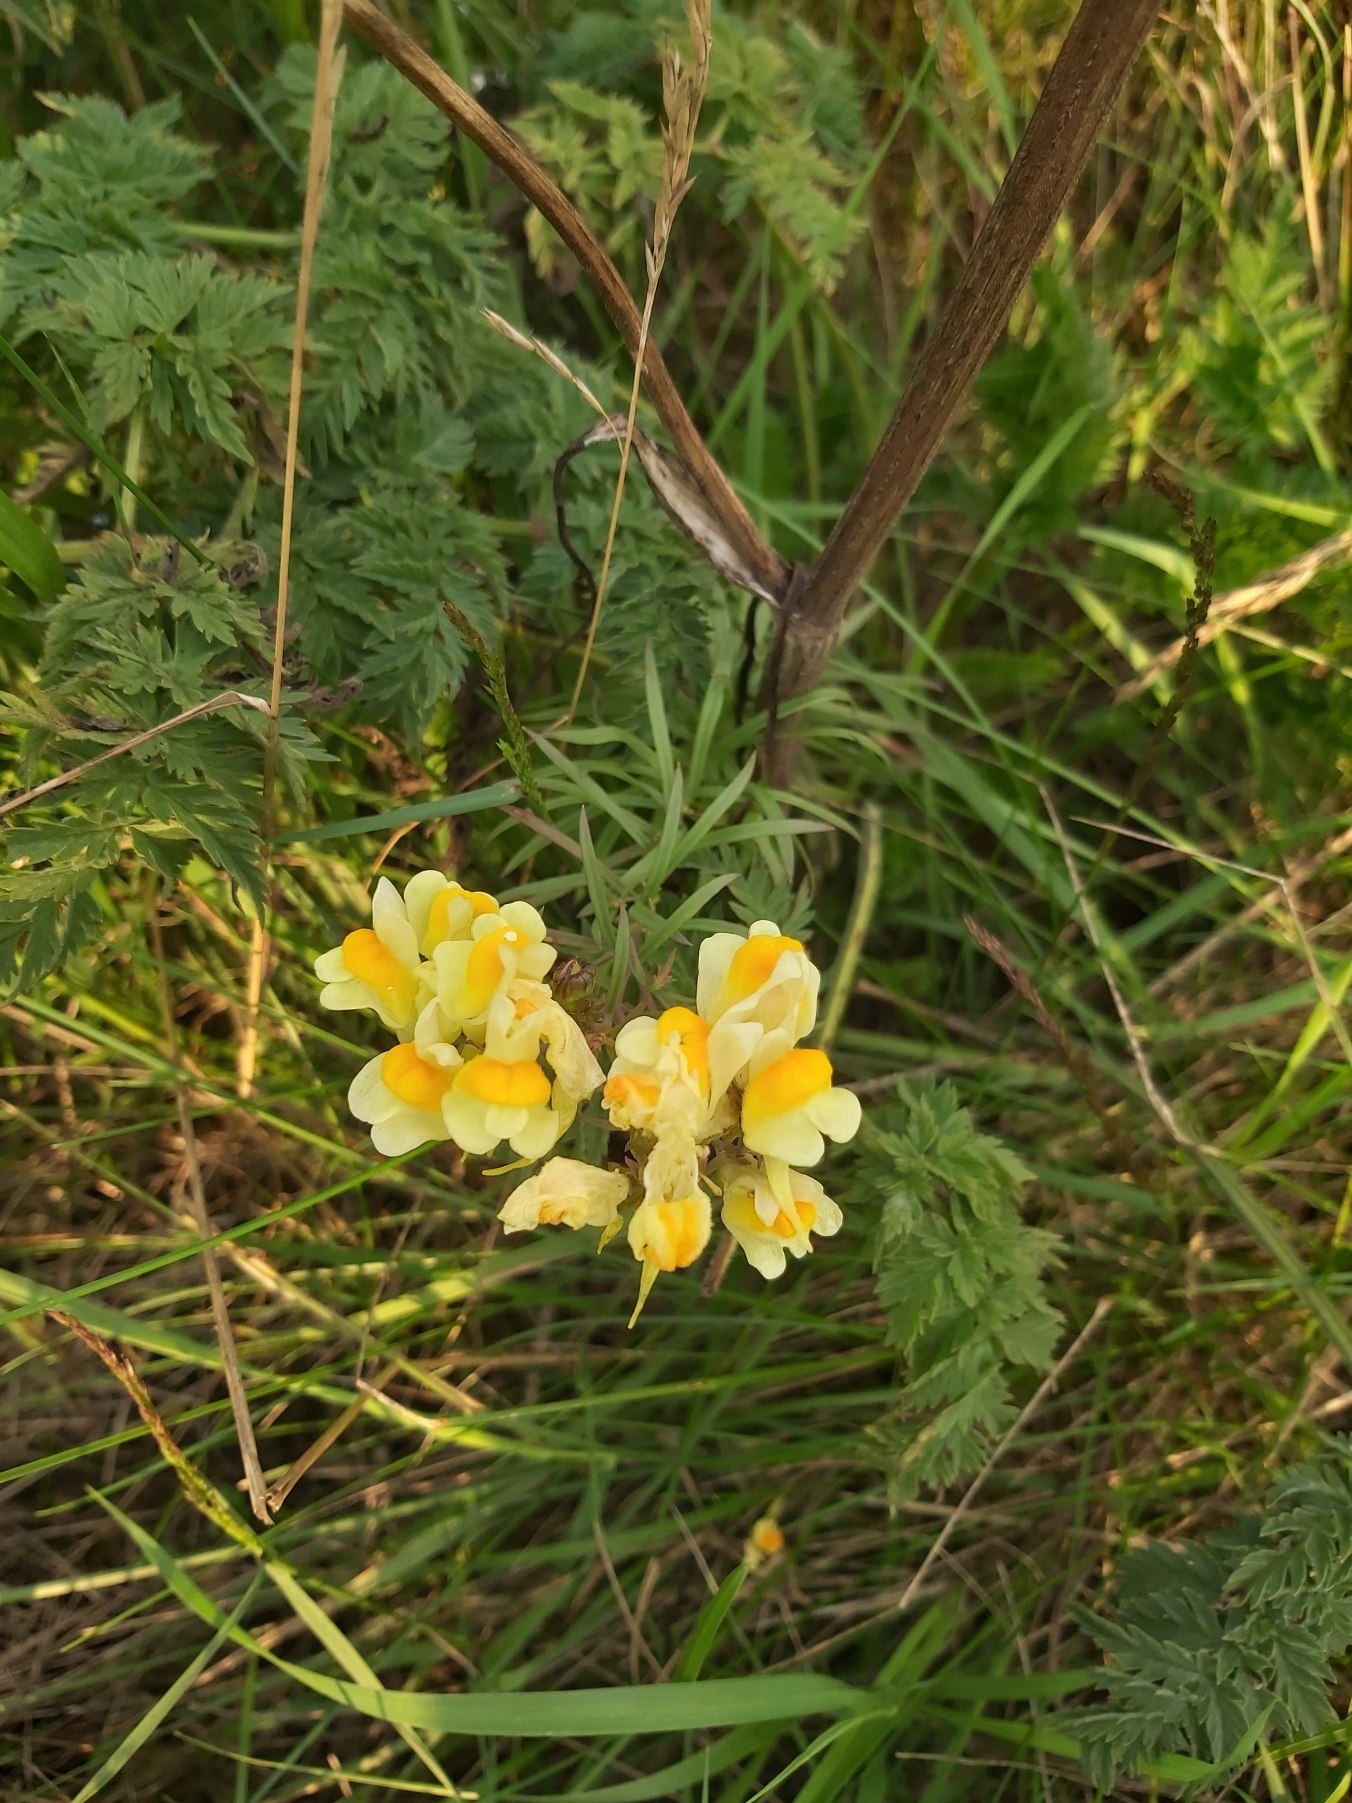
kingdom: Plantae
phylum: Tracheophyta
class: Magnoliopsida
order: Lamiales
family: Plantaginaceae
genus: Linaria
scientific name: Linaria vulgaris
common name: Almindelig torskemund
